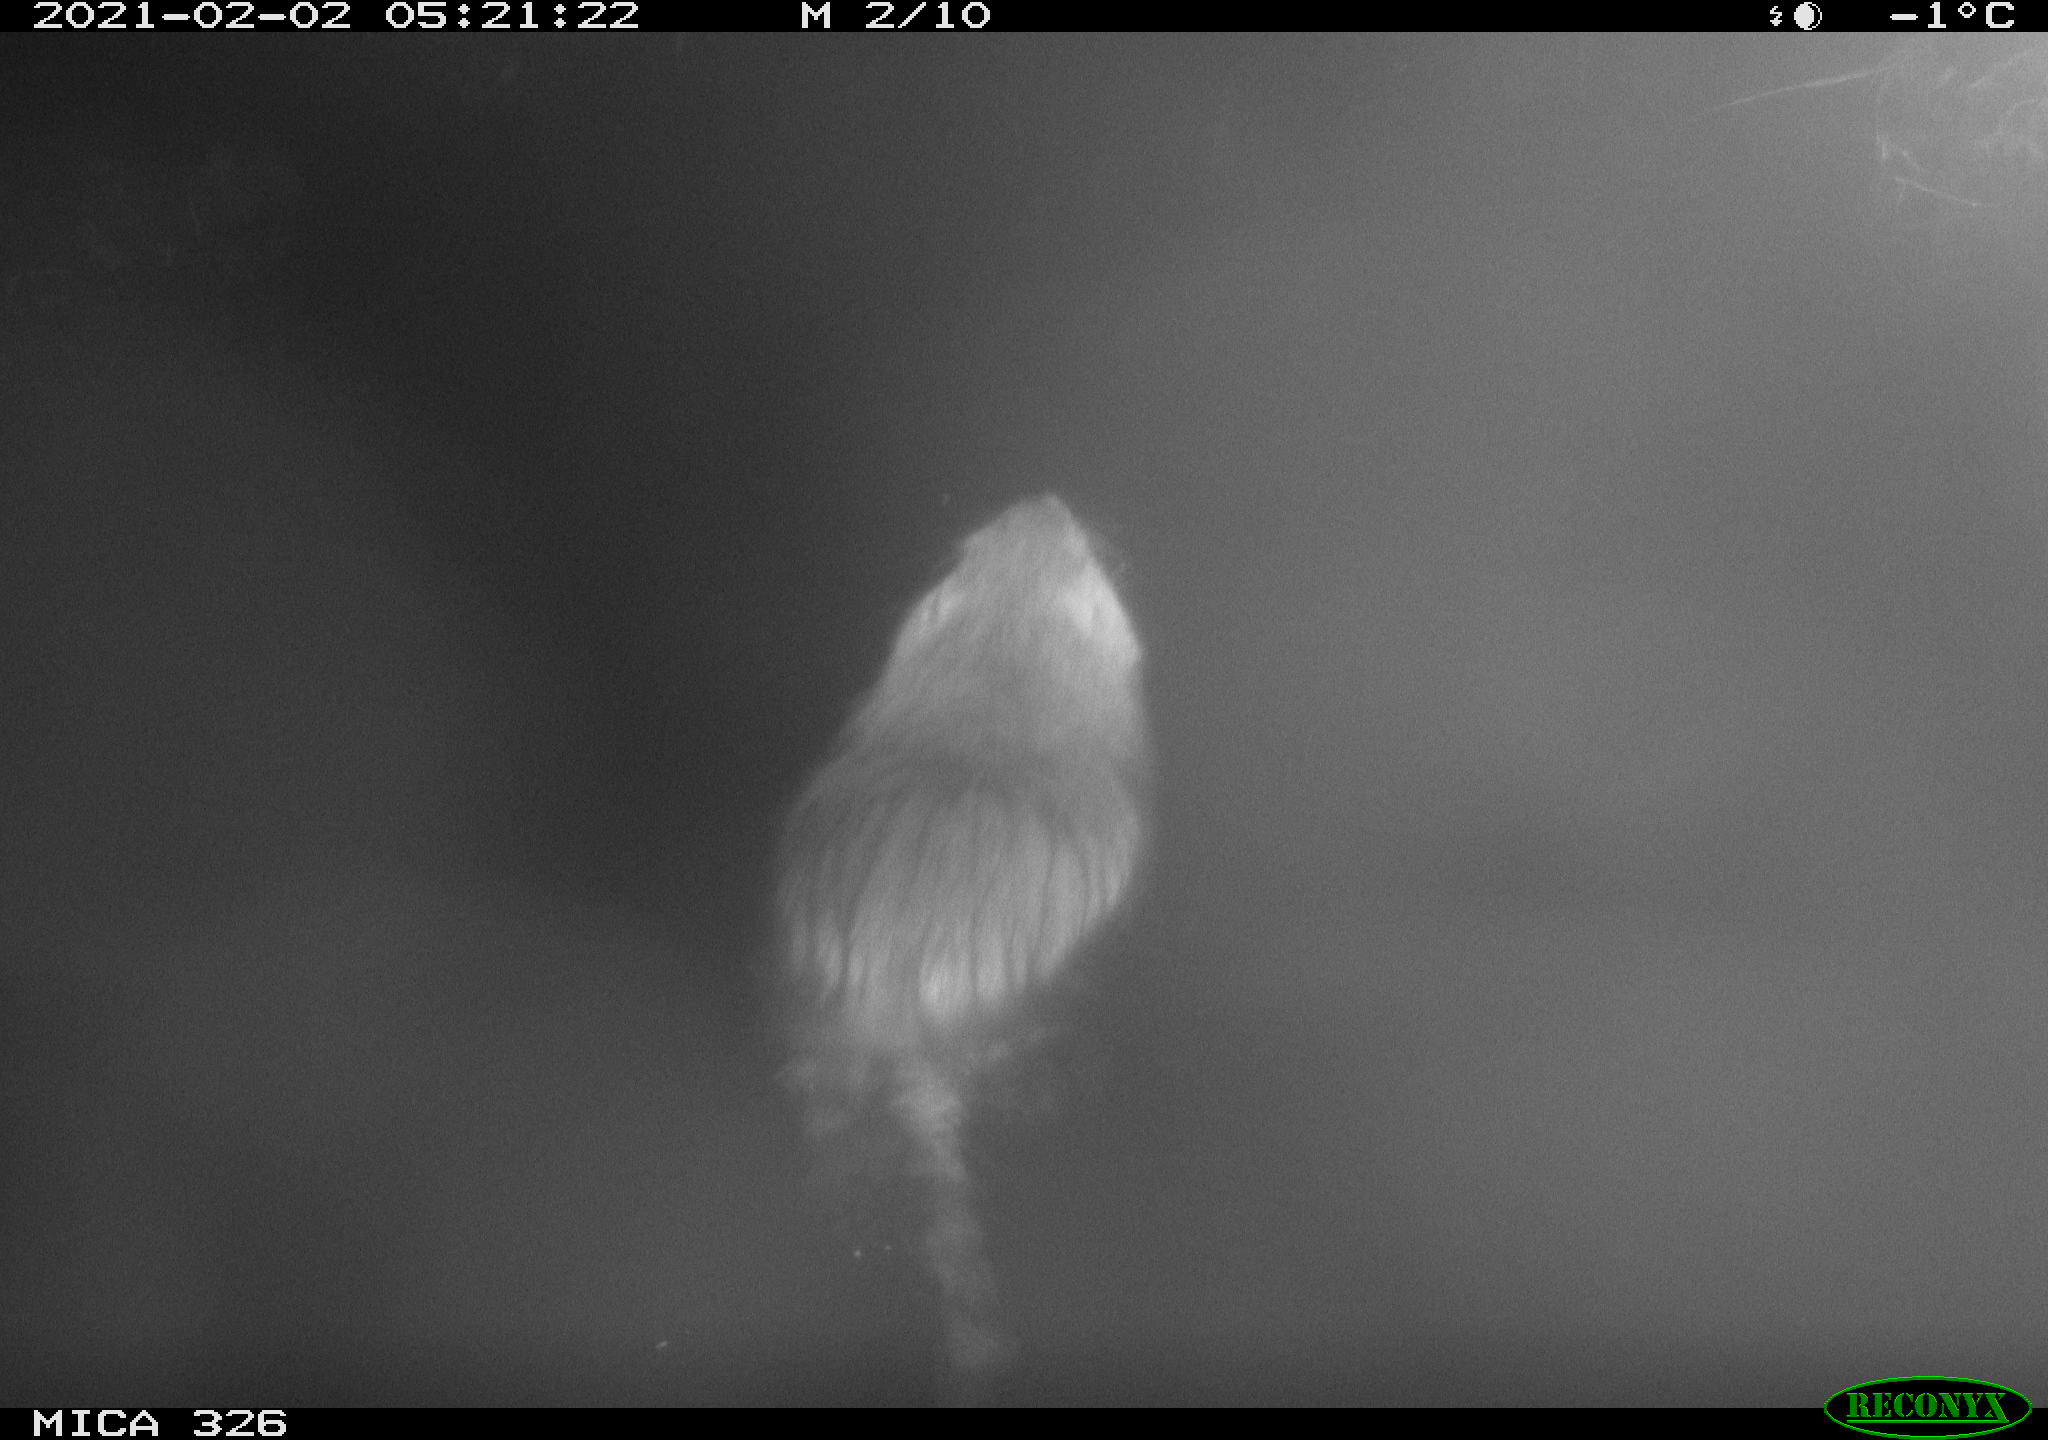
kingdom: Animalia
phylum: Chordata
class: Mammalia
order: Rodentia
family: Myocastoridae
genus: Myocastor
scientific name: Myocastor coypus
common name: Coypu
